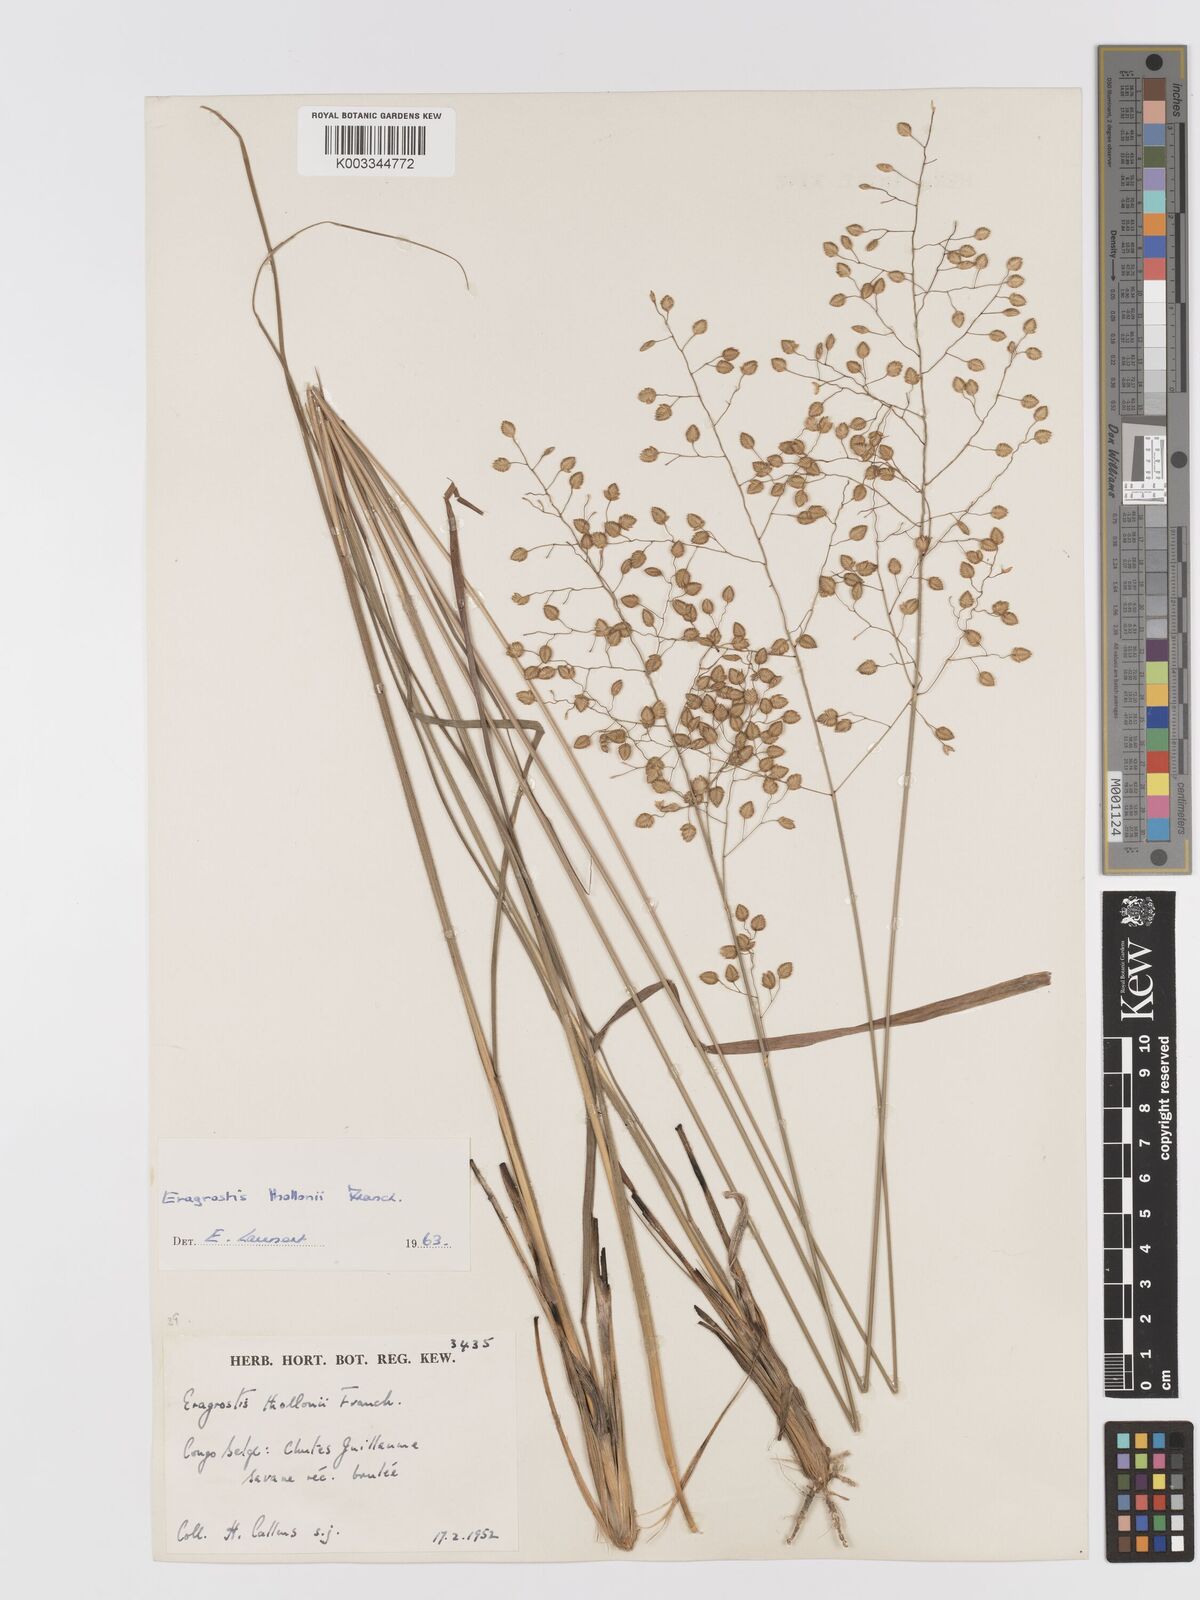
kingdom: Plantae
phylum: Tracheophyta
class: Liliopsida
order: Poales
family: Poaceae
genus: Eragrostis
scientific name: Eragrostis thollonii
